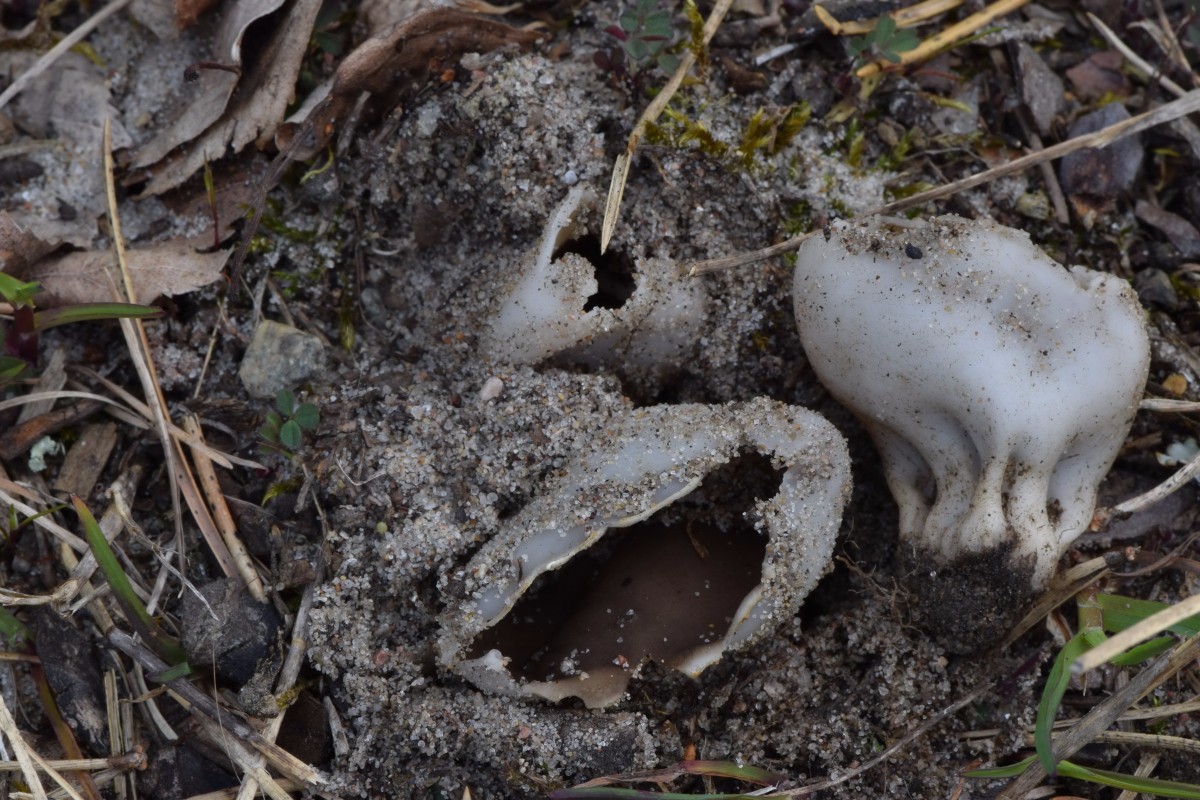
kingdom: Fungi
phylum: Ascomycota
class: Pezizomycetes
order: Pezizales
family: Helvellaceae
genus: Dissingia
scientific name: Dissingia leucomelaena
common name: sorthvid foldhat
